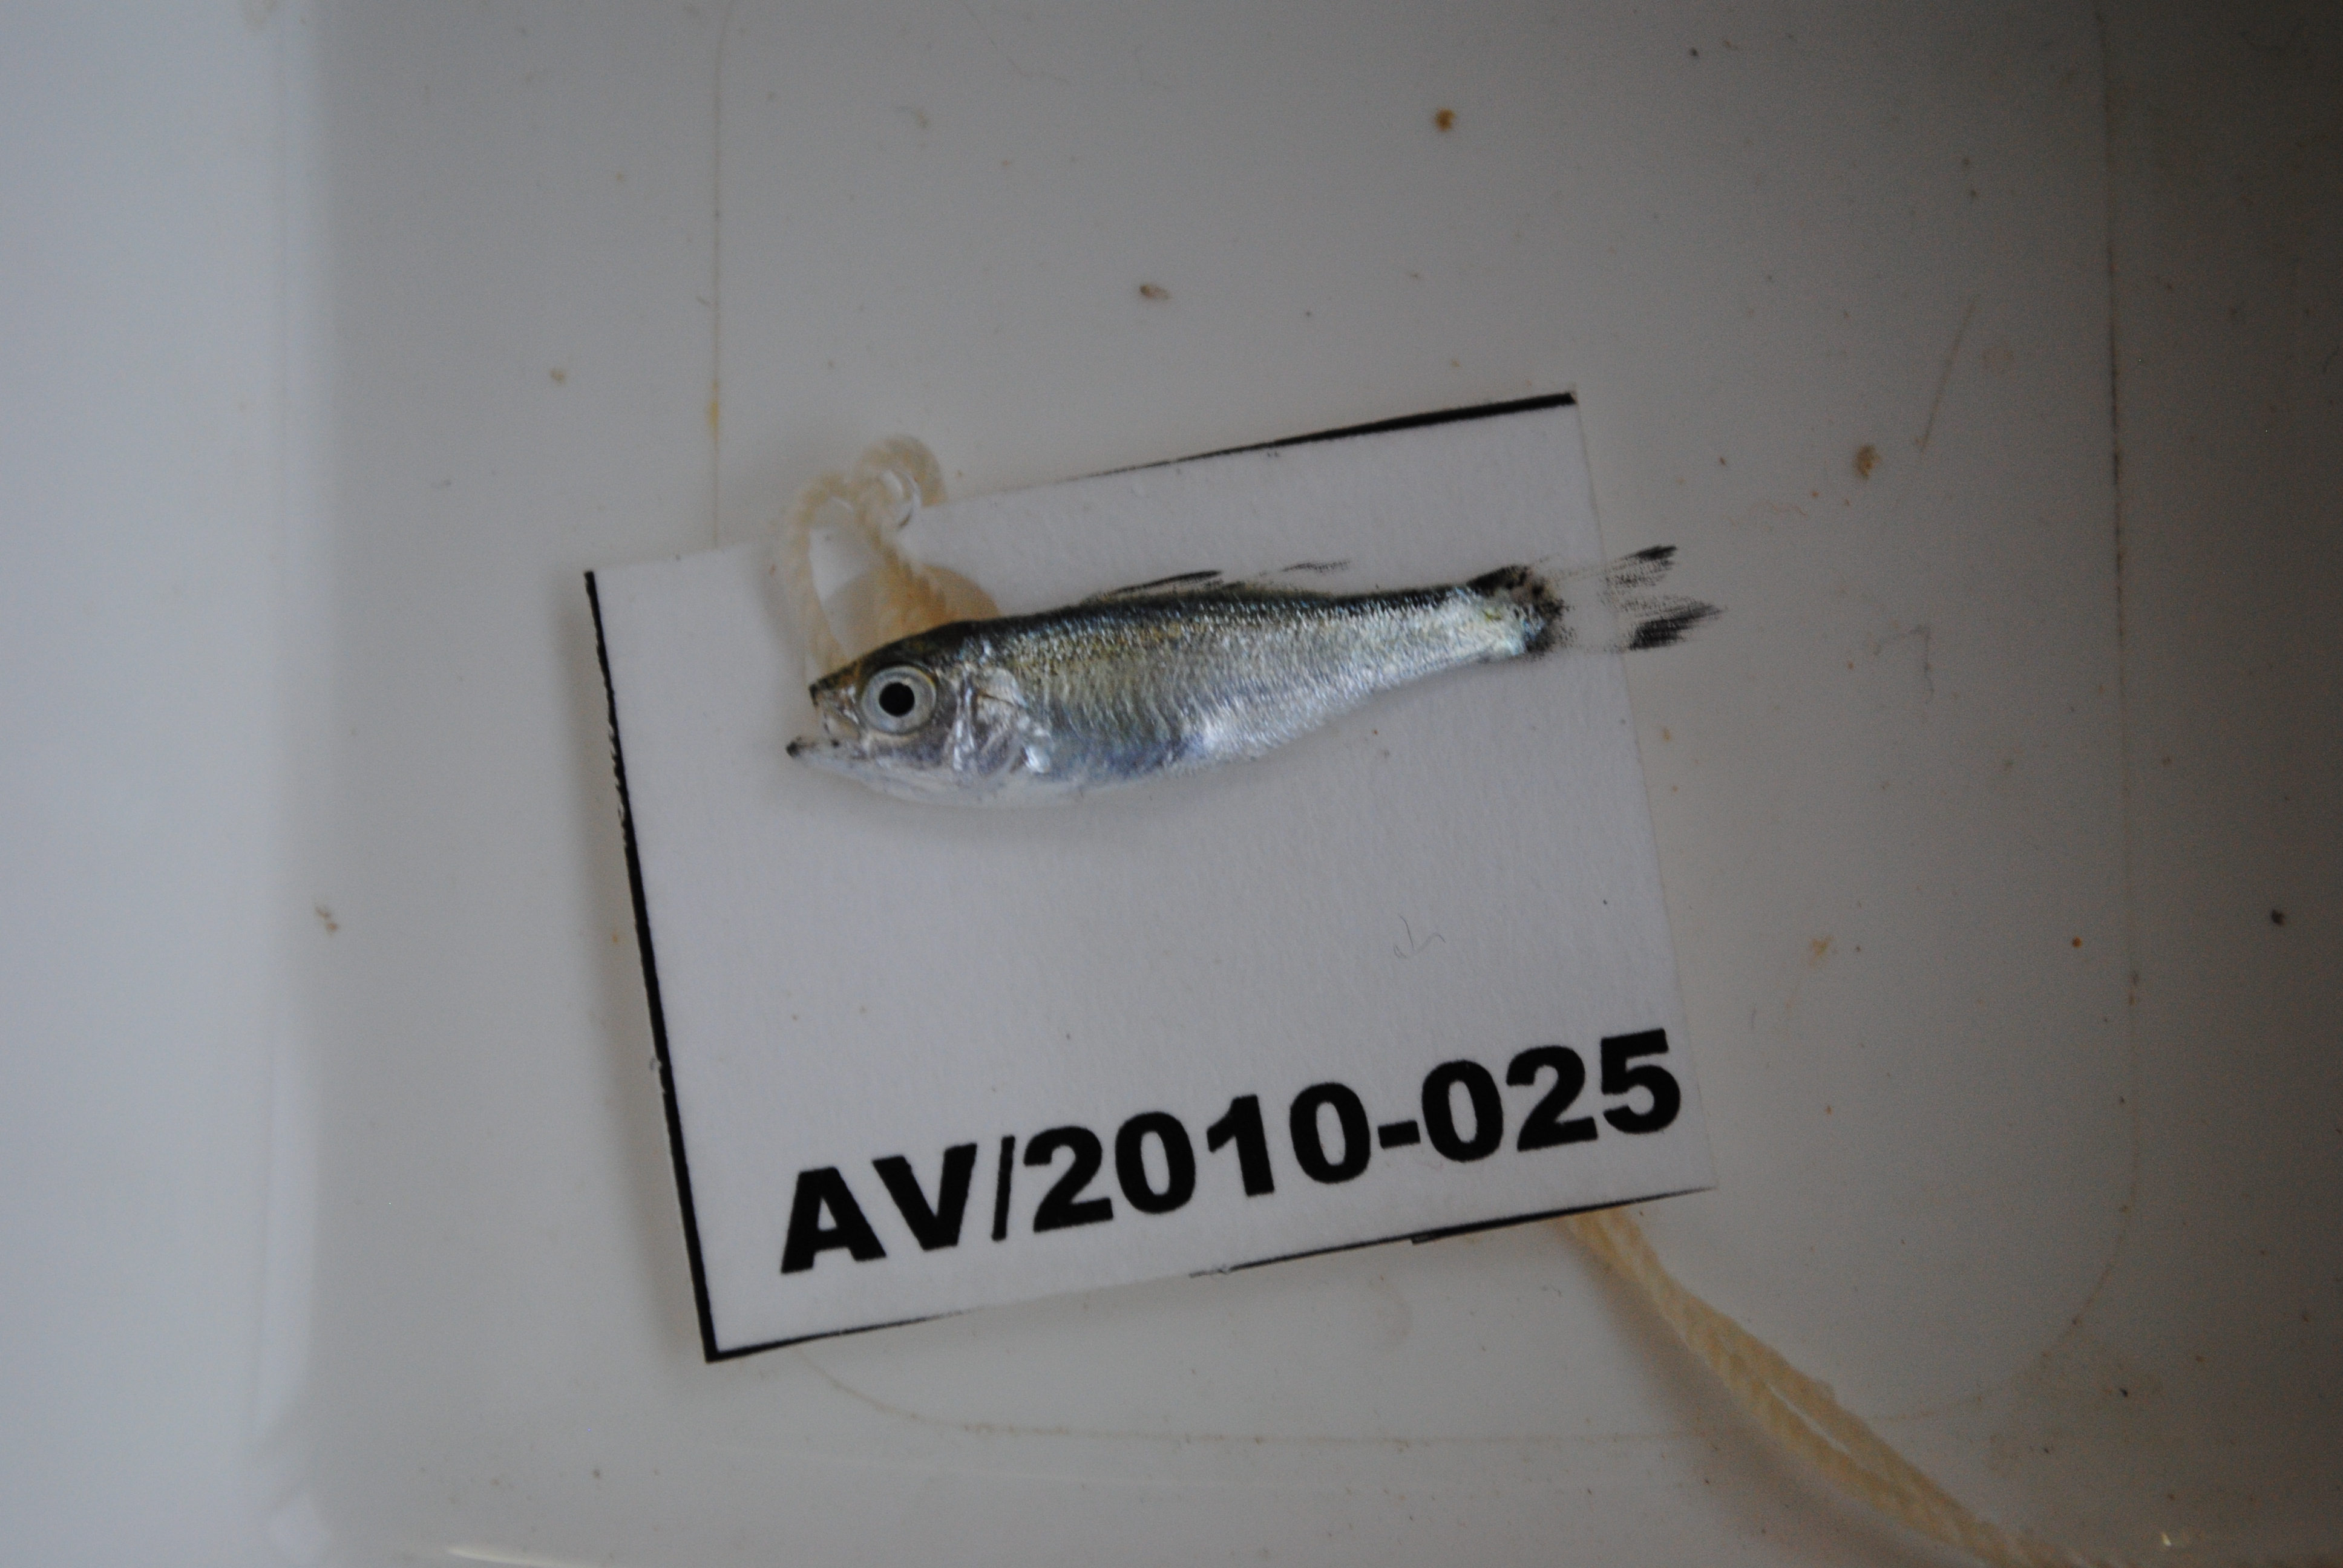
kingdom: Animalia
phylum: Chordata
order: Perciformes
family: Kuhliidae
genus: Kuhlia
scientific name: Kuhlia
